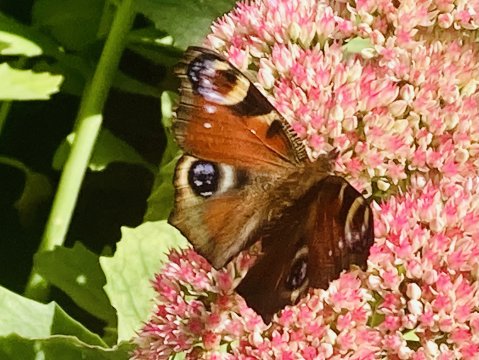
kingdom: Animalia
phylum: Arthropoda
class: Insecta
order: Lepidoptera
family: Nymphalidae
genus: Aglais
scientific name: Aglais io
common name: European Peacock
